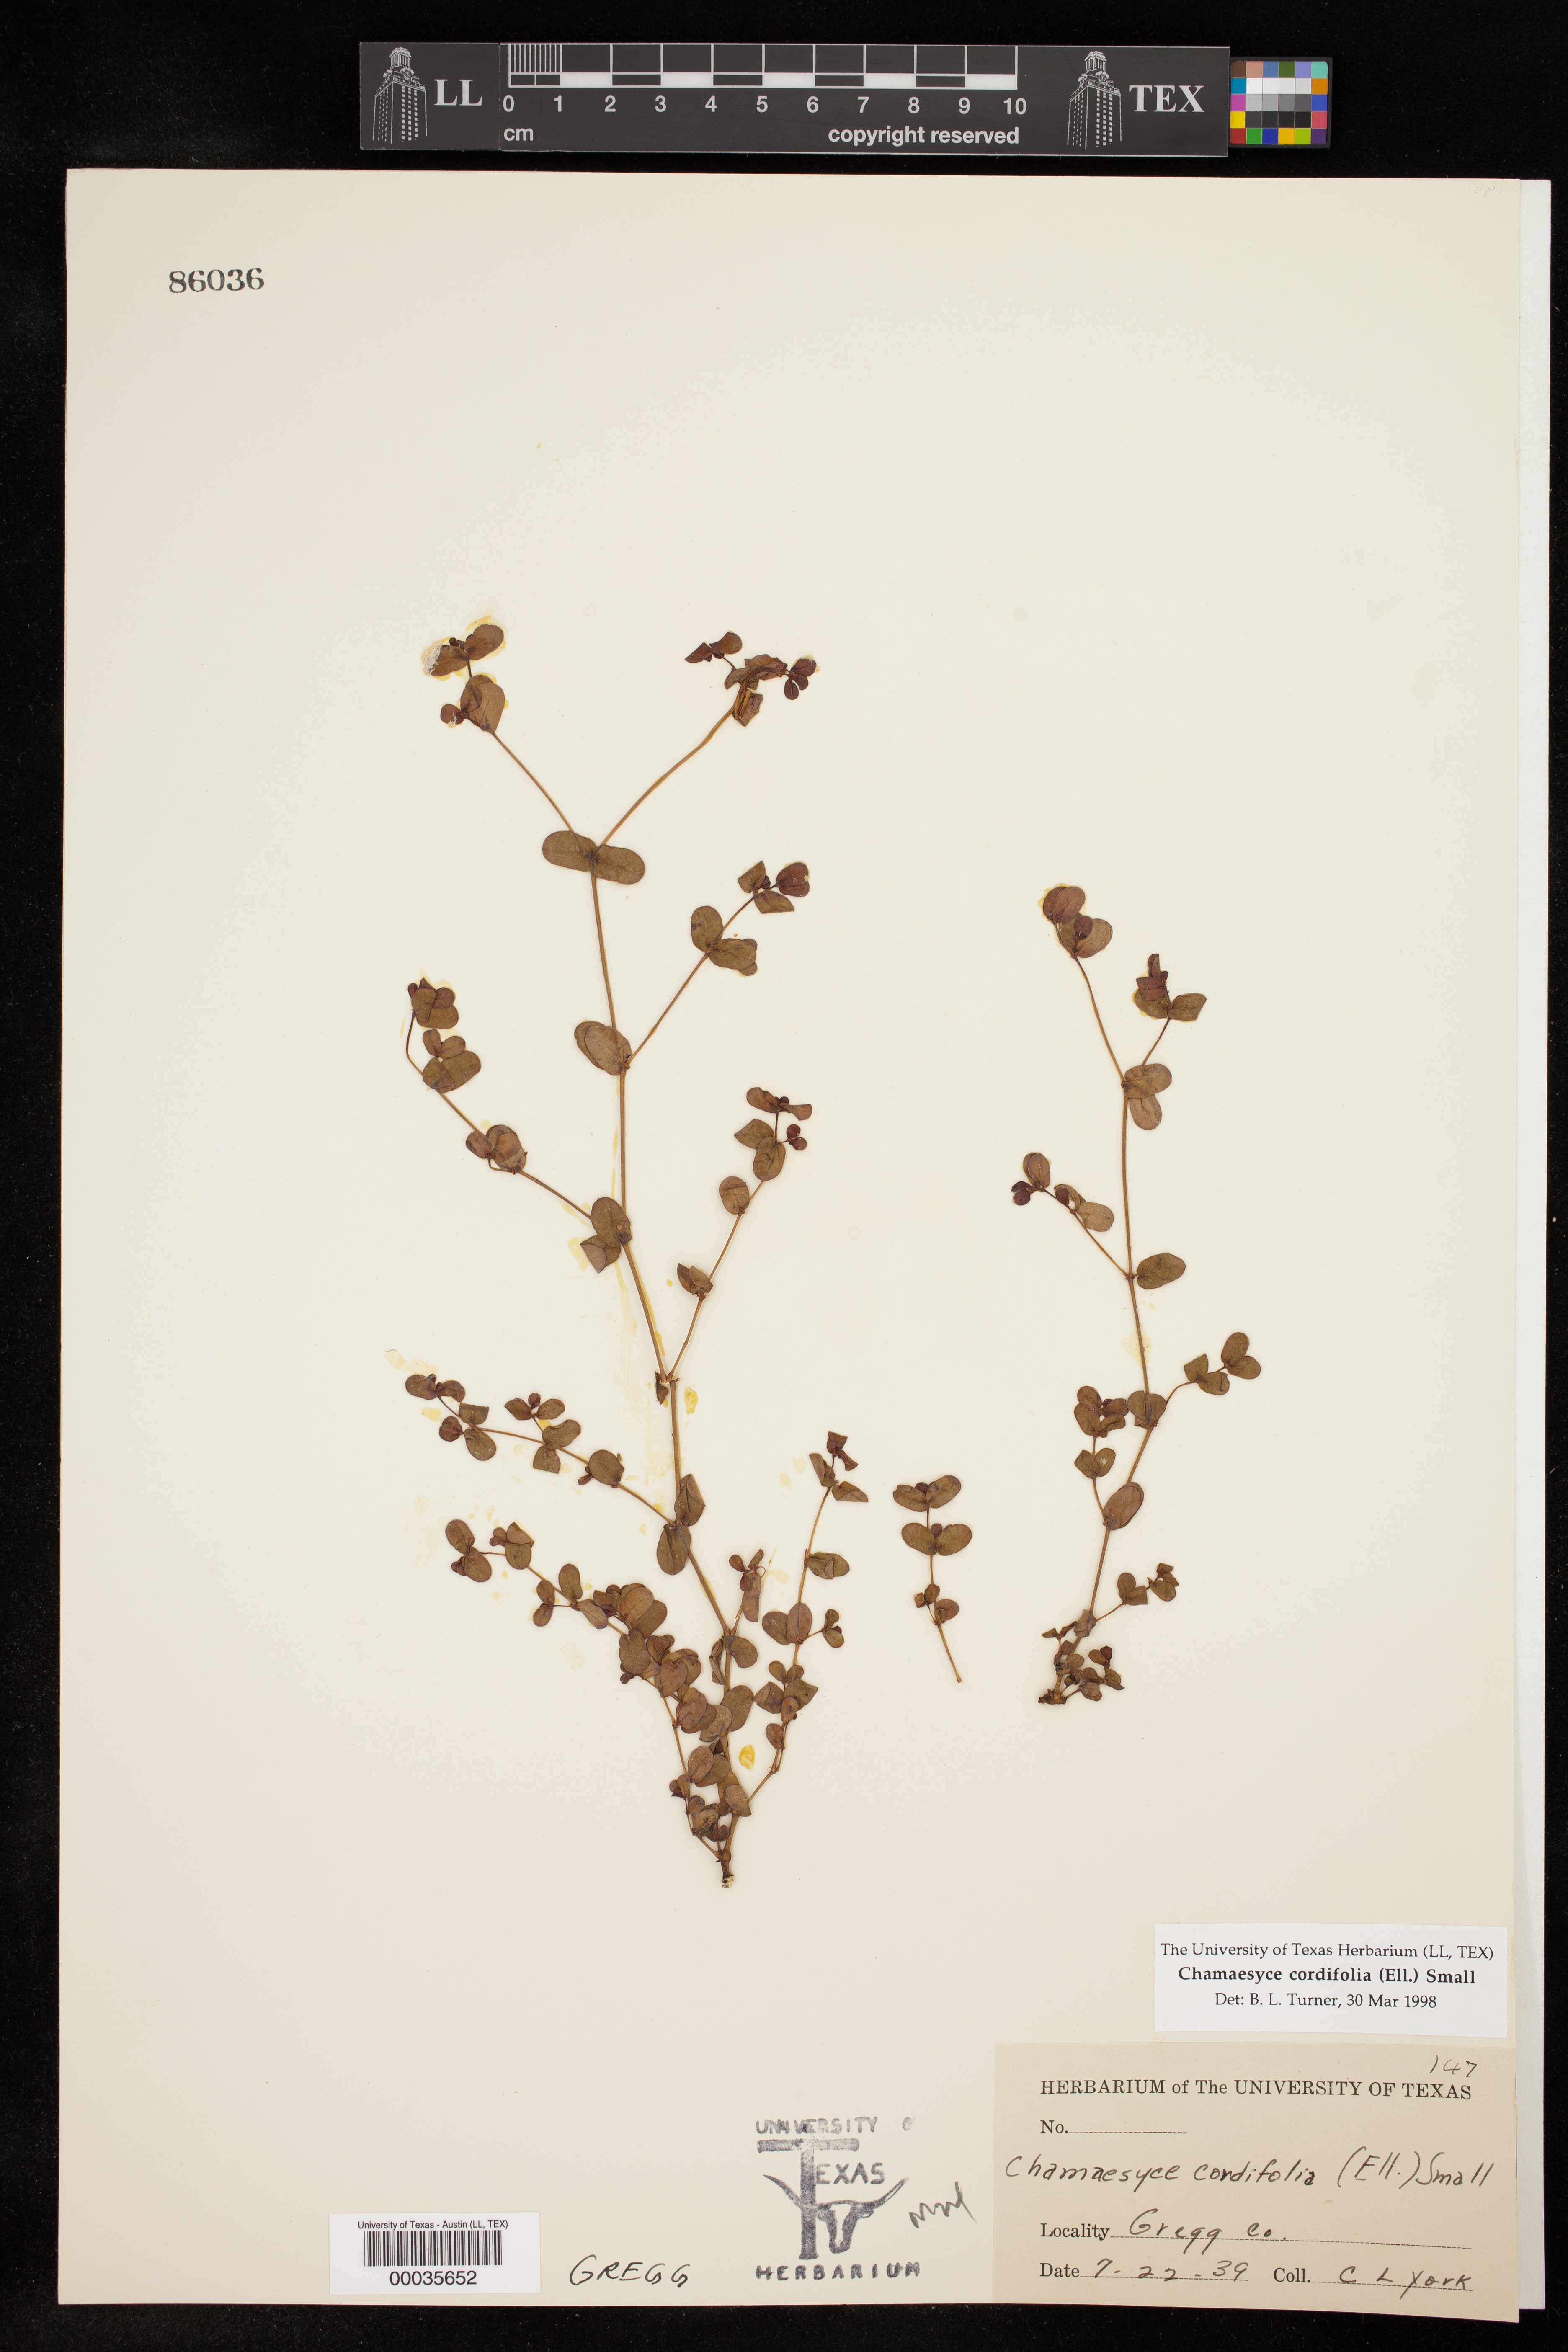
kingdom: Plantae
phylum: Tracheophyta
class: Magnoliopsida
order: Malpighiales
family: Euphorbiaceae
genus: Euphorbia
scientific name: Euphorbia cordifolia
